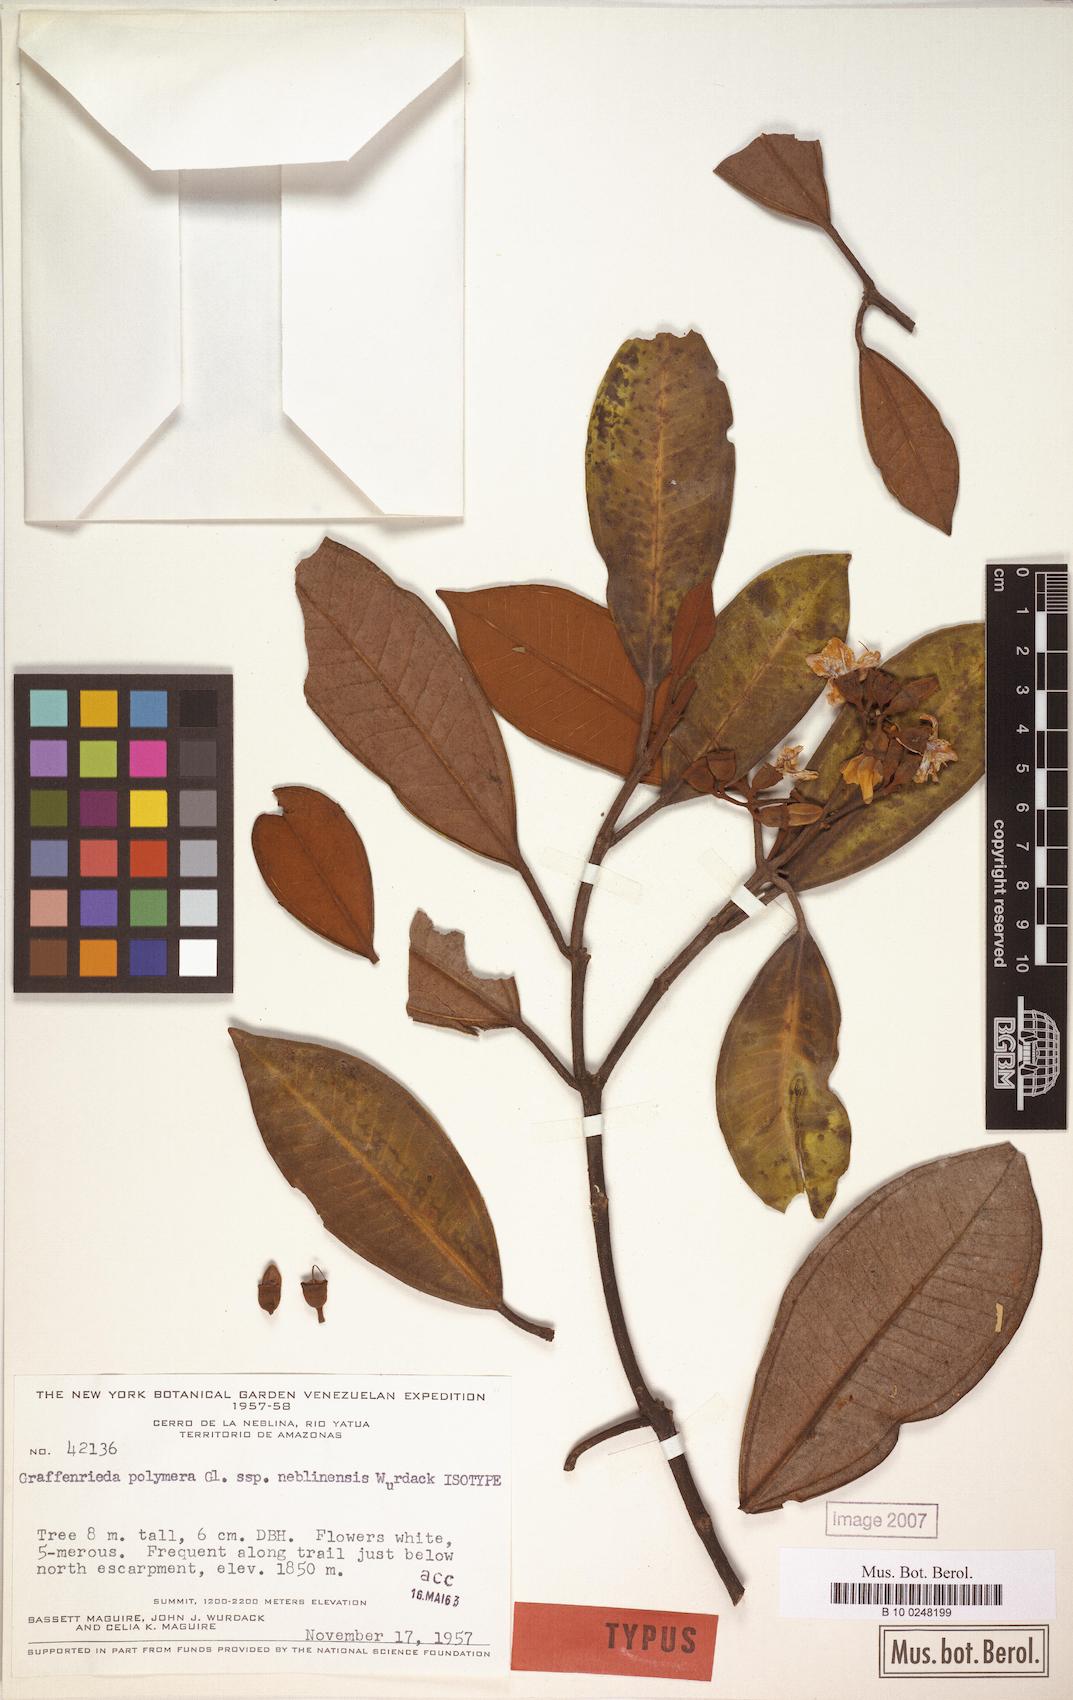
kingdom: Plantae
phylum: Tracheophyta
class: Magnoliopsida
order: Myrtales
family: Melastomataceae
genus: Graffenrieda
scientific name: Graffenrieda polymera
